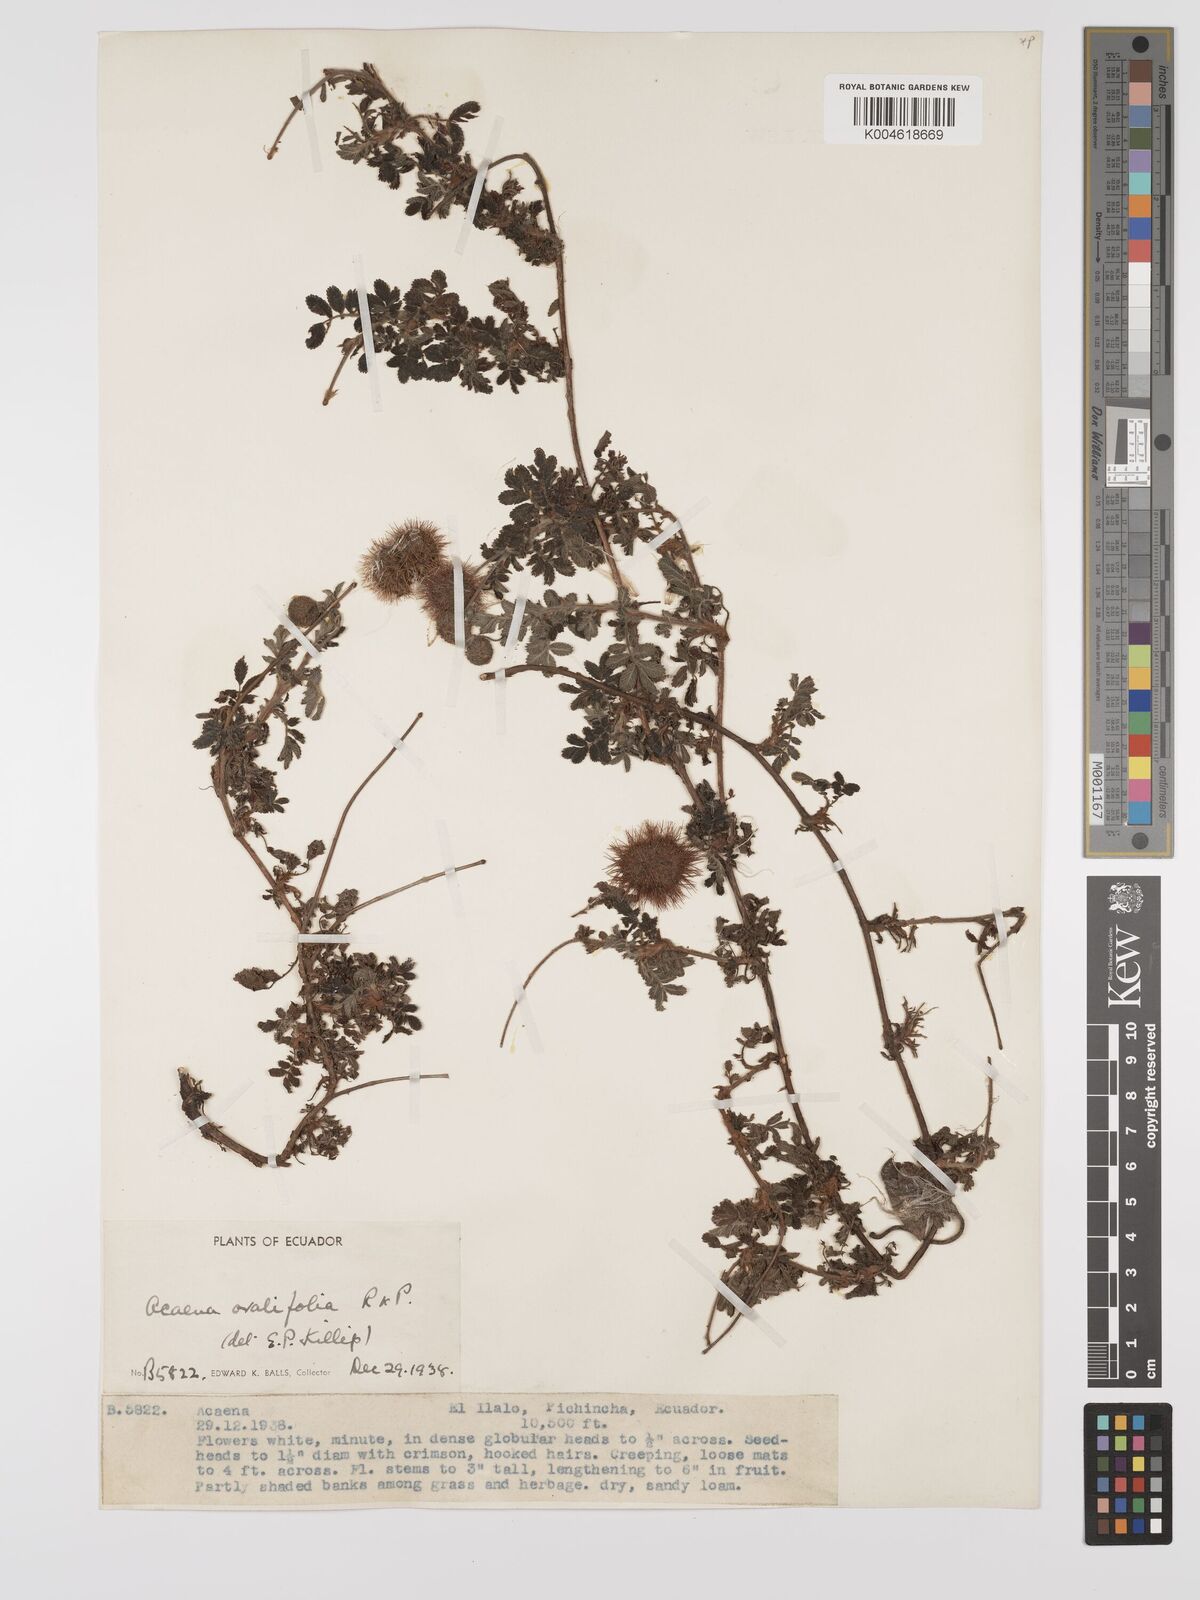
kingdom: Plantae
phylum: Tracheophyta
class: Magnoliopsida
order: Rosales
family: Rosaceae
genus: Acaena
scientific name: Acaena ovalifolia
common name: Two-spined acaena
